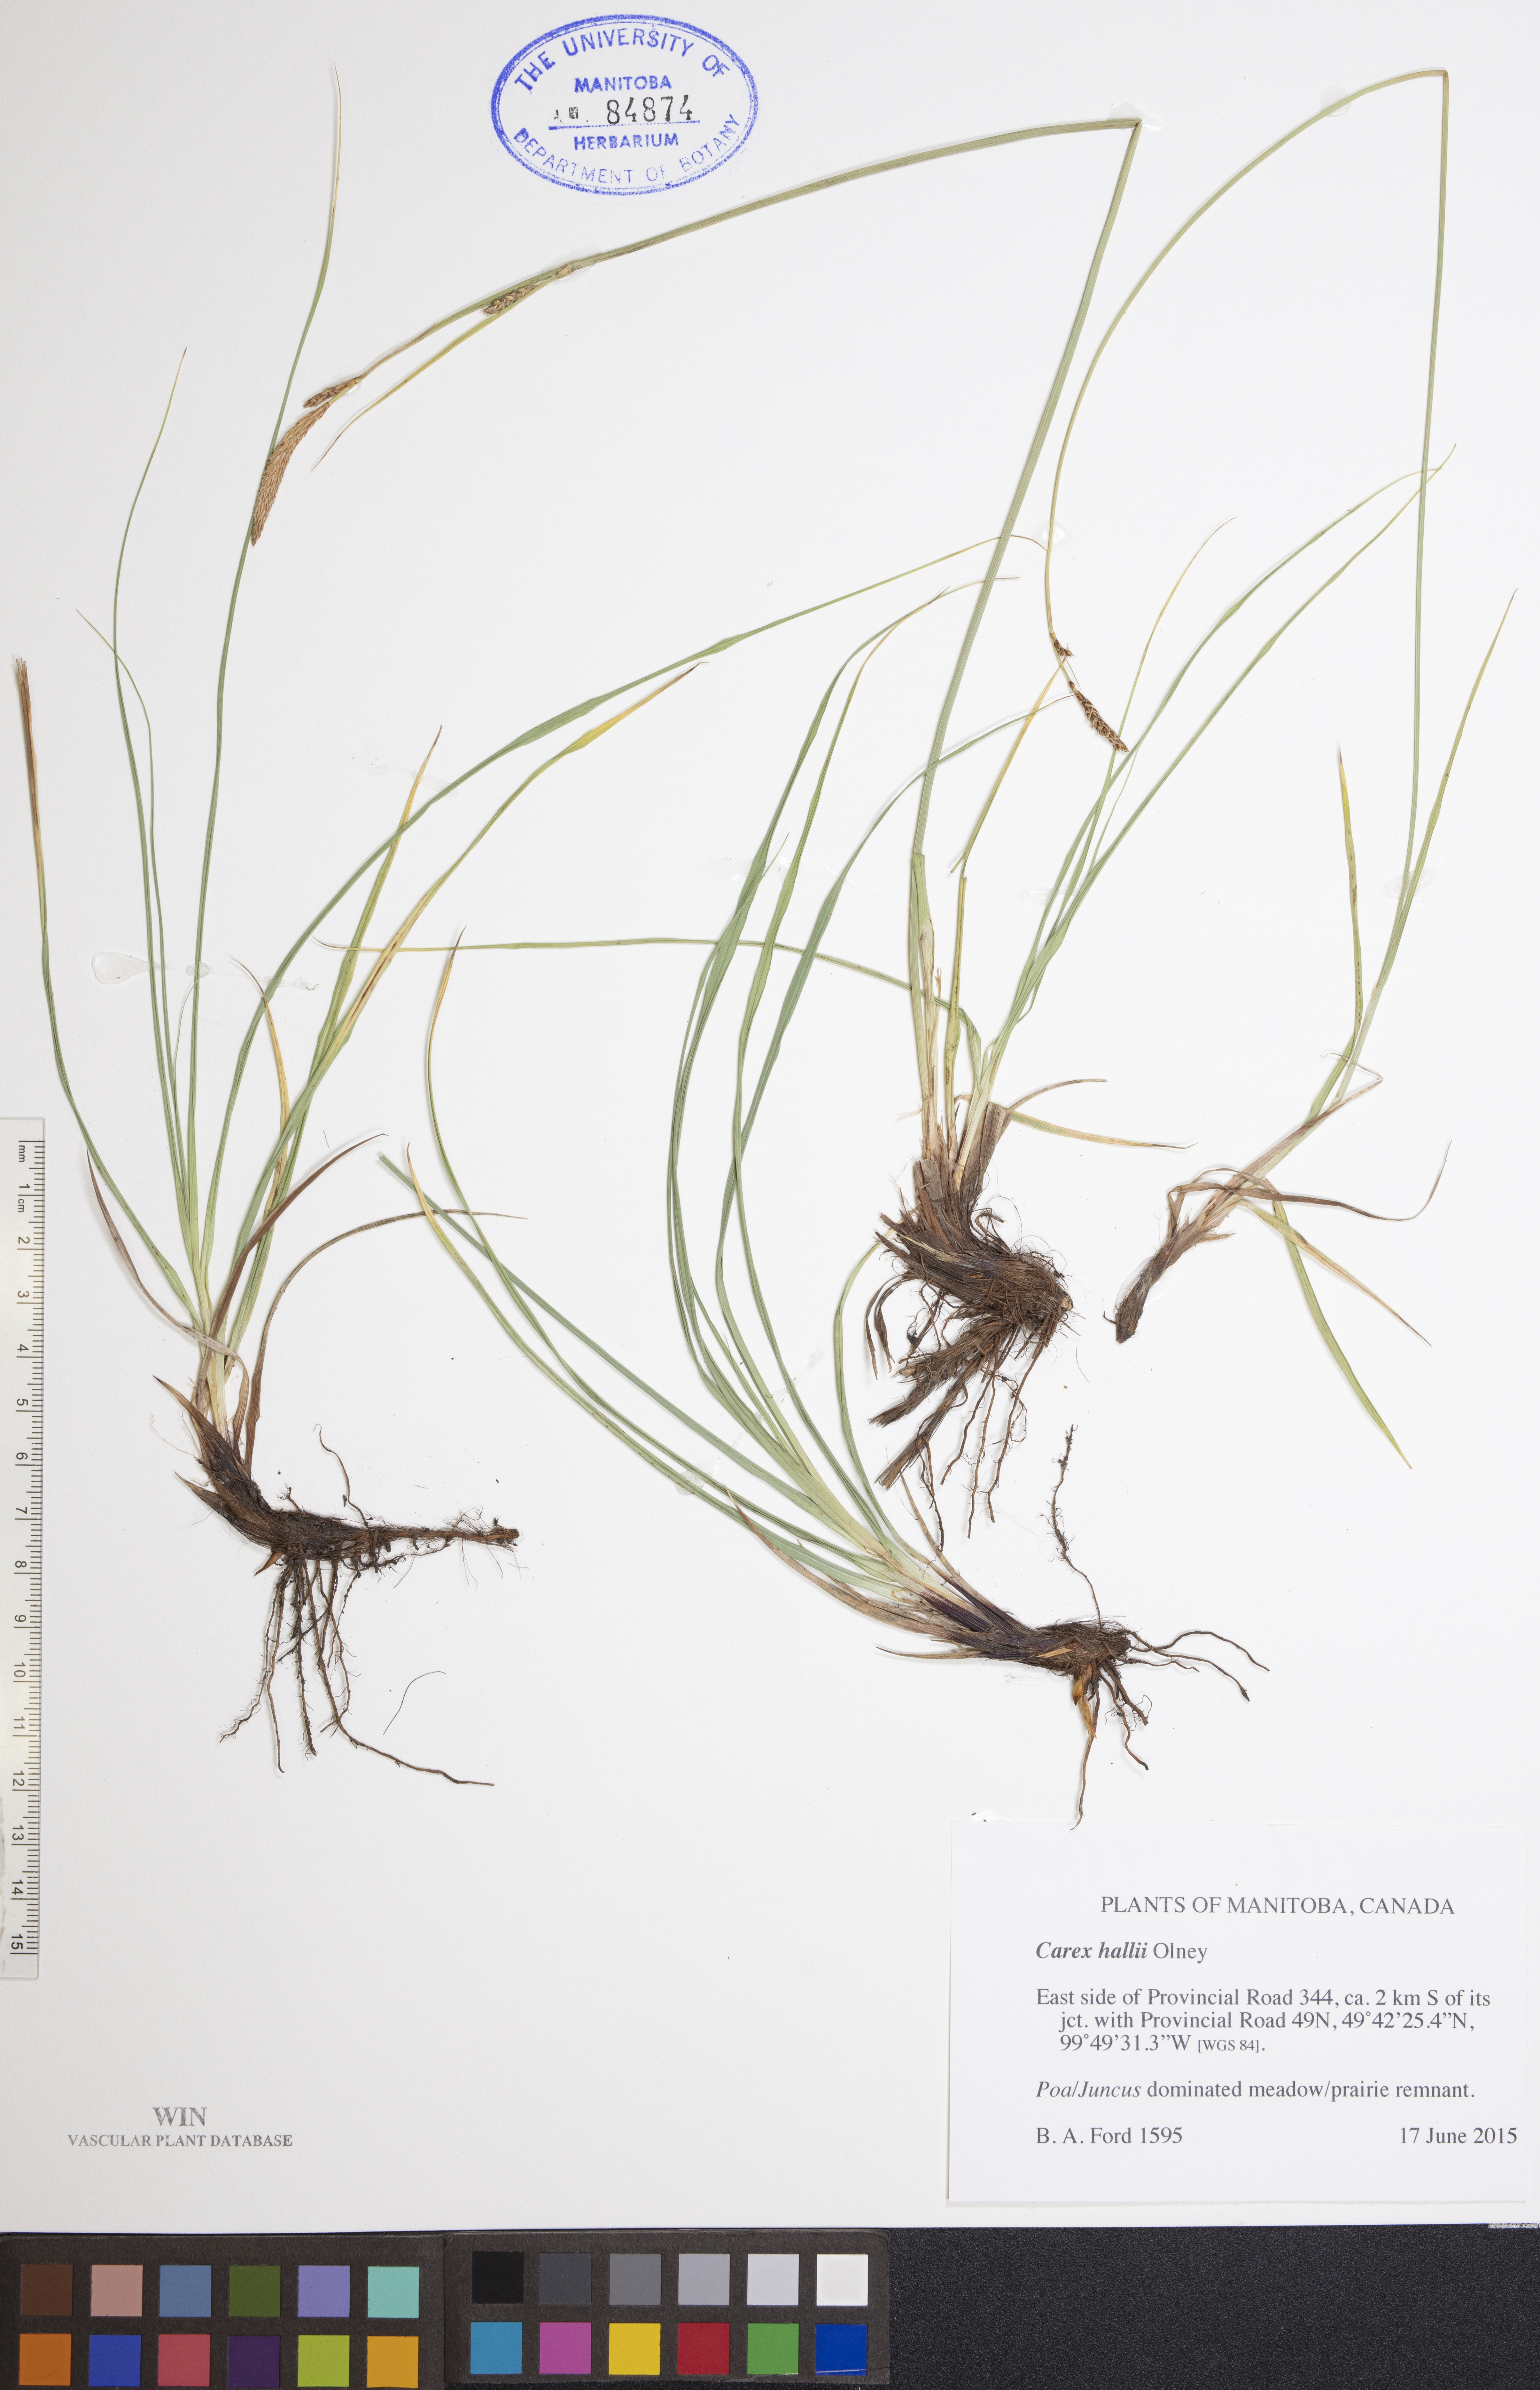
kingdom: Plantae
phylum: Tracheophyta
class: Liliopsida
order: Poales
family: Cyperaceae
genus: Carex
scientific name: Carex hallii
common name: Deer sedge
